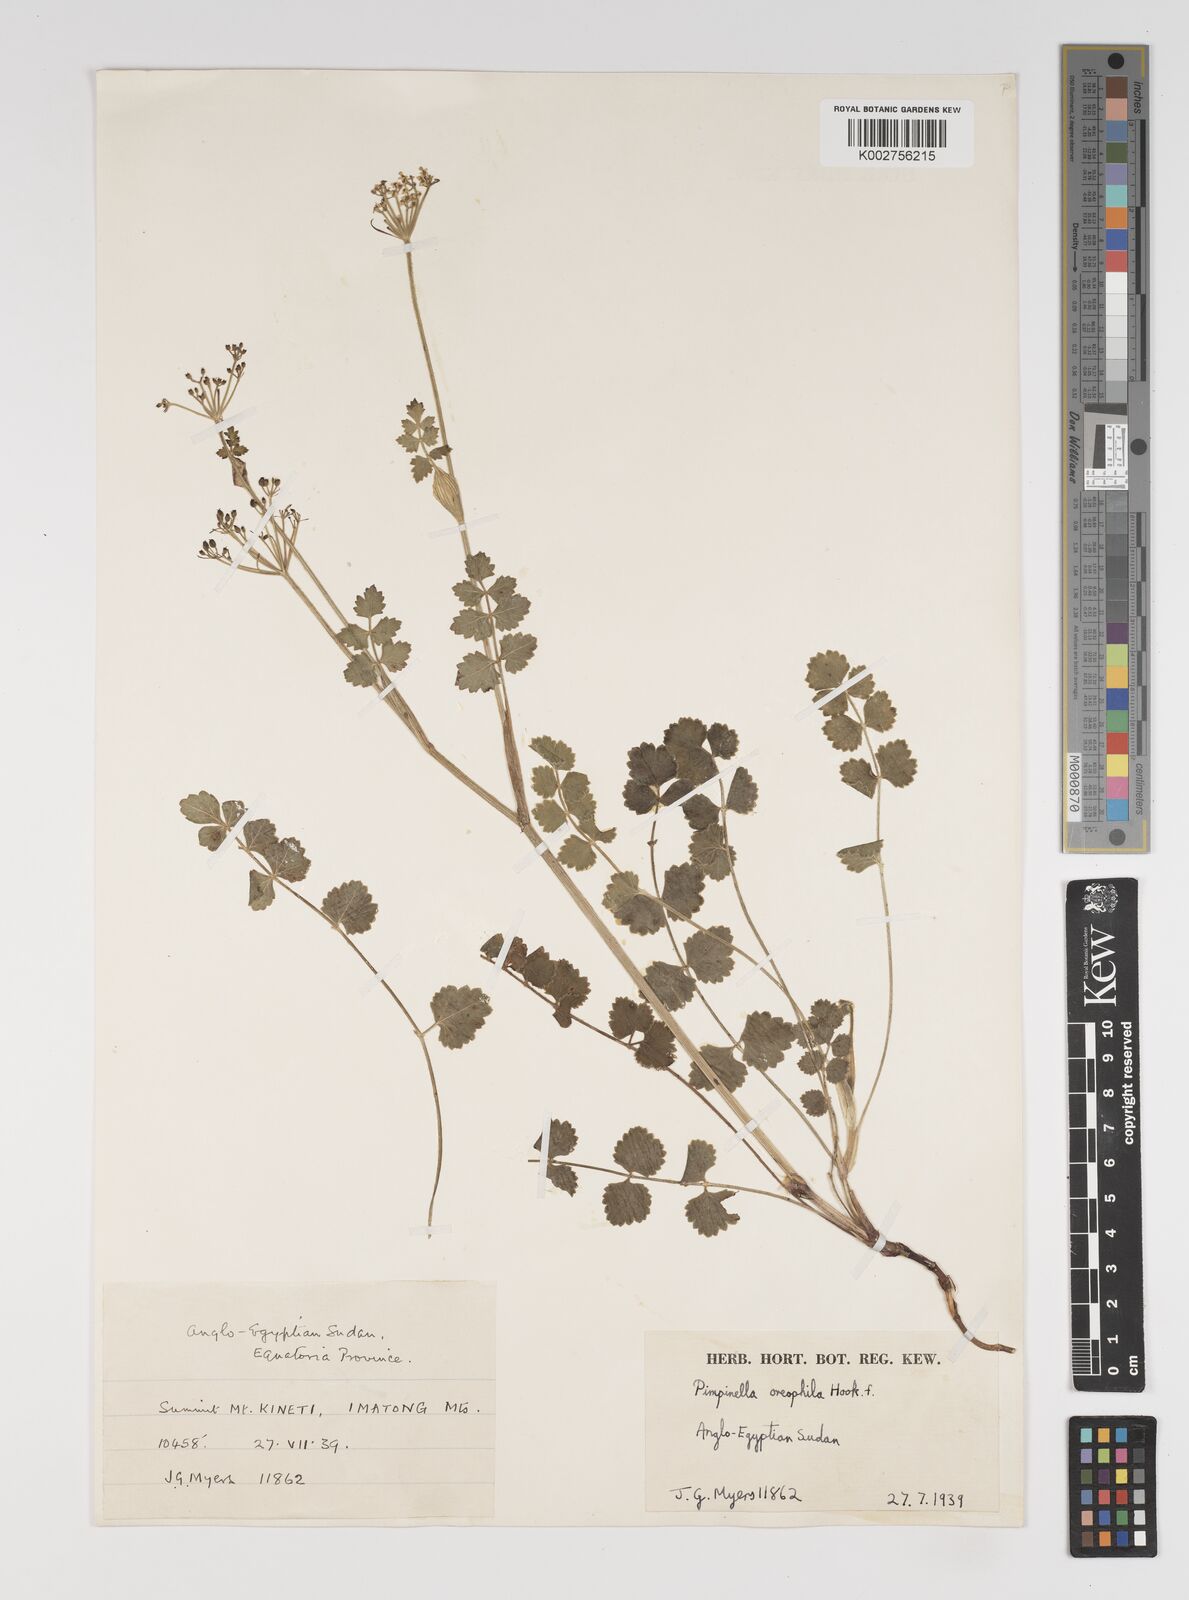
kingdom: Plantae
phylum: Tracheophyta
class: Magnoliopsida
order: Apiales
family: Apiaceae
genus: Pimpinella
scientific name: Pimpinella oreophila
